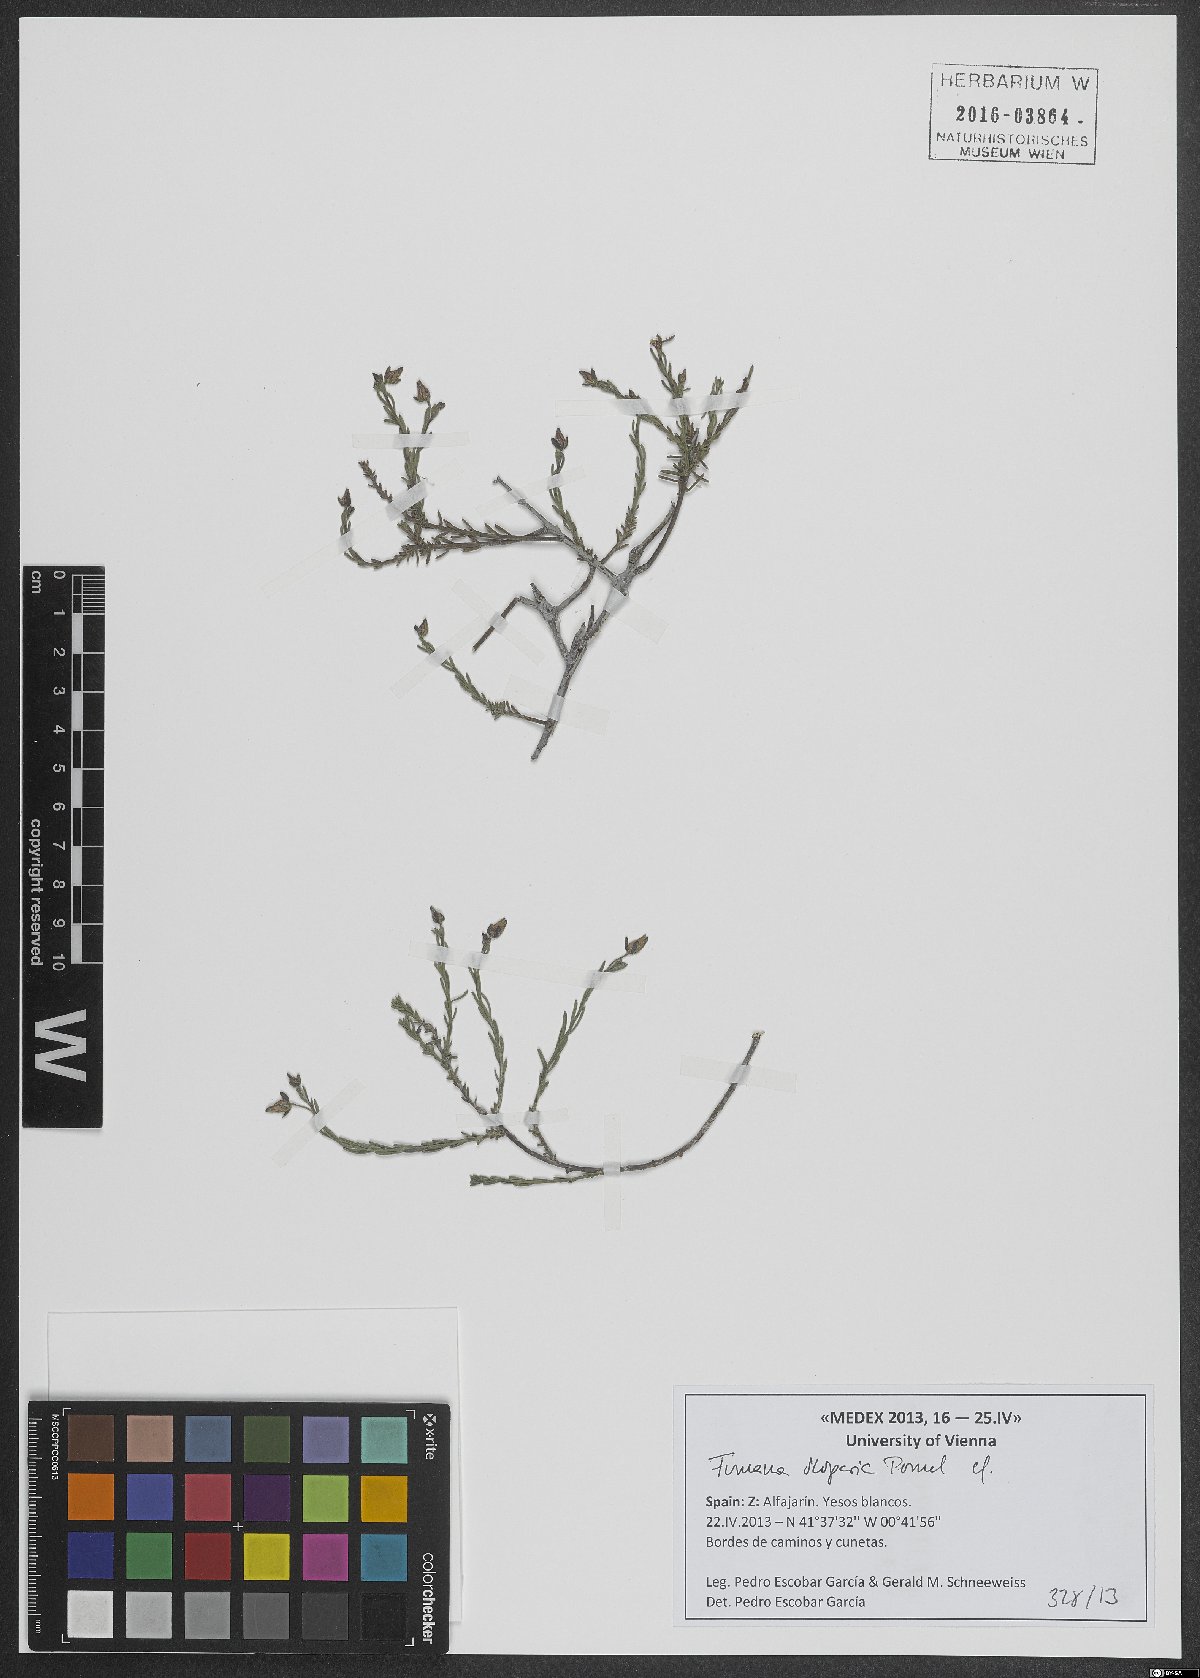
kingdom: Plantae
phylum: Tracheophyta
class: Magnoliopsida
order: Malvales
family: Cistaceae
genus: Fumana
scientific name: Fumana scoparia
